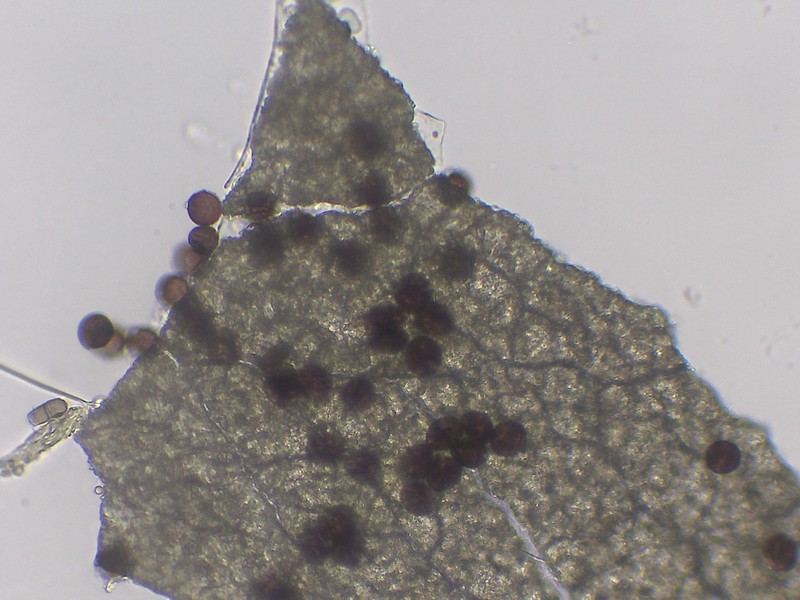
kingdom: Protozoa
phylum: Mycetozoa
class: Myxomycetes
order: Physarales
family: Didymiaceae
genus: Didymium
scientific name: Didymium difforme
